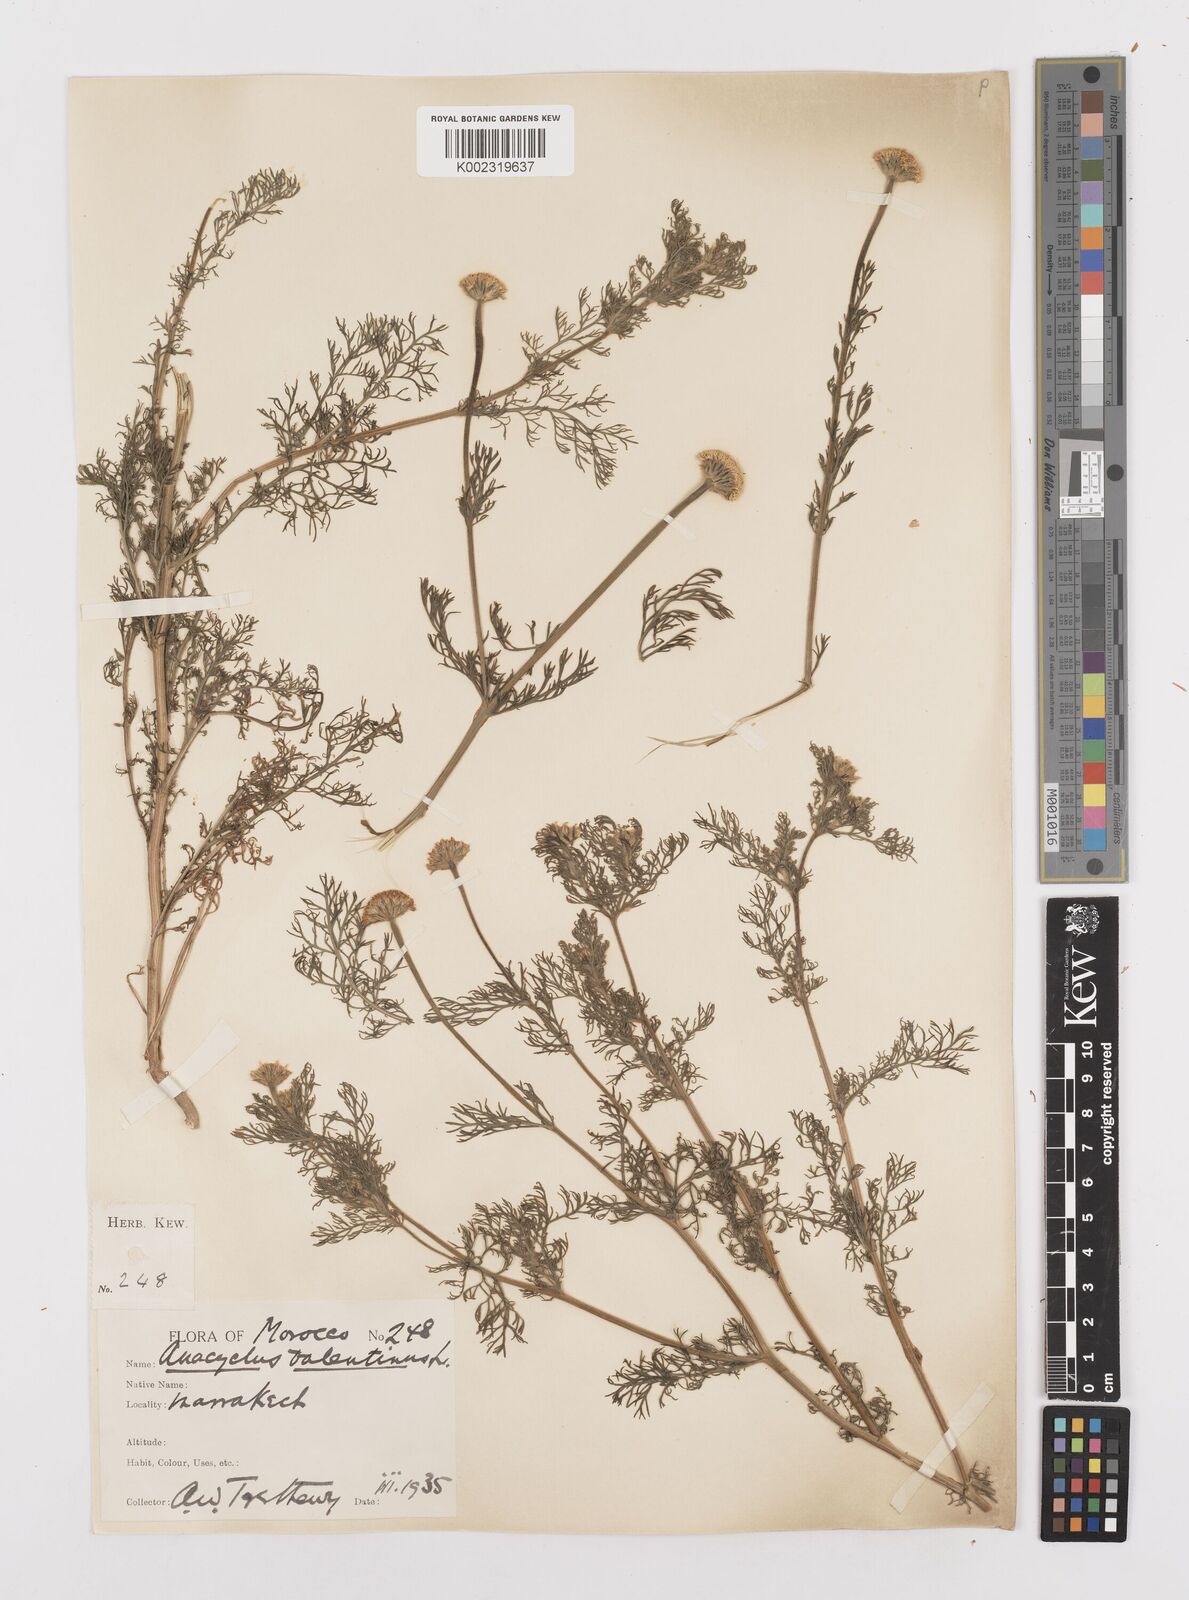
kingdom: Plantae
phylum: Tracheophyta
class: Magnoliopsida
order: Asterales
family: Asteraceae
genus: Anacyclus
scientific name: Anacyclus valentinus
